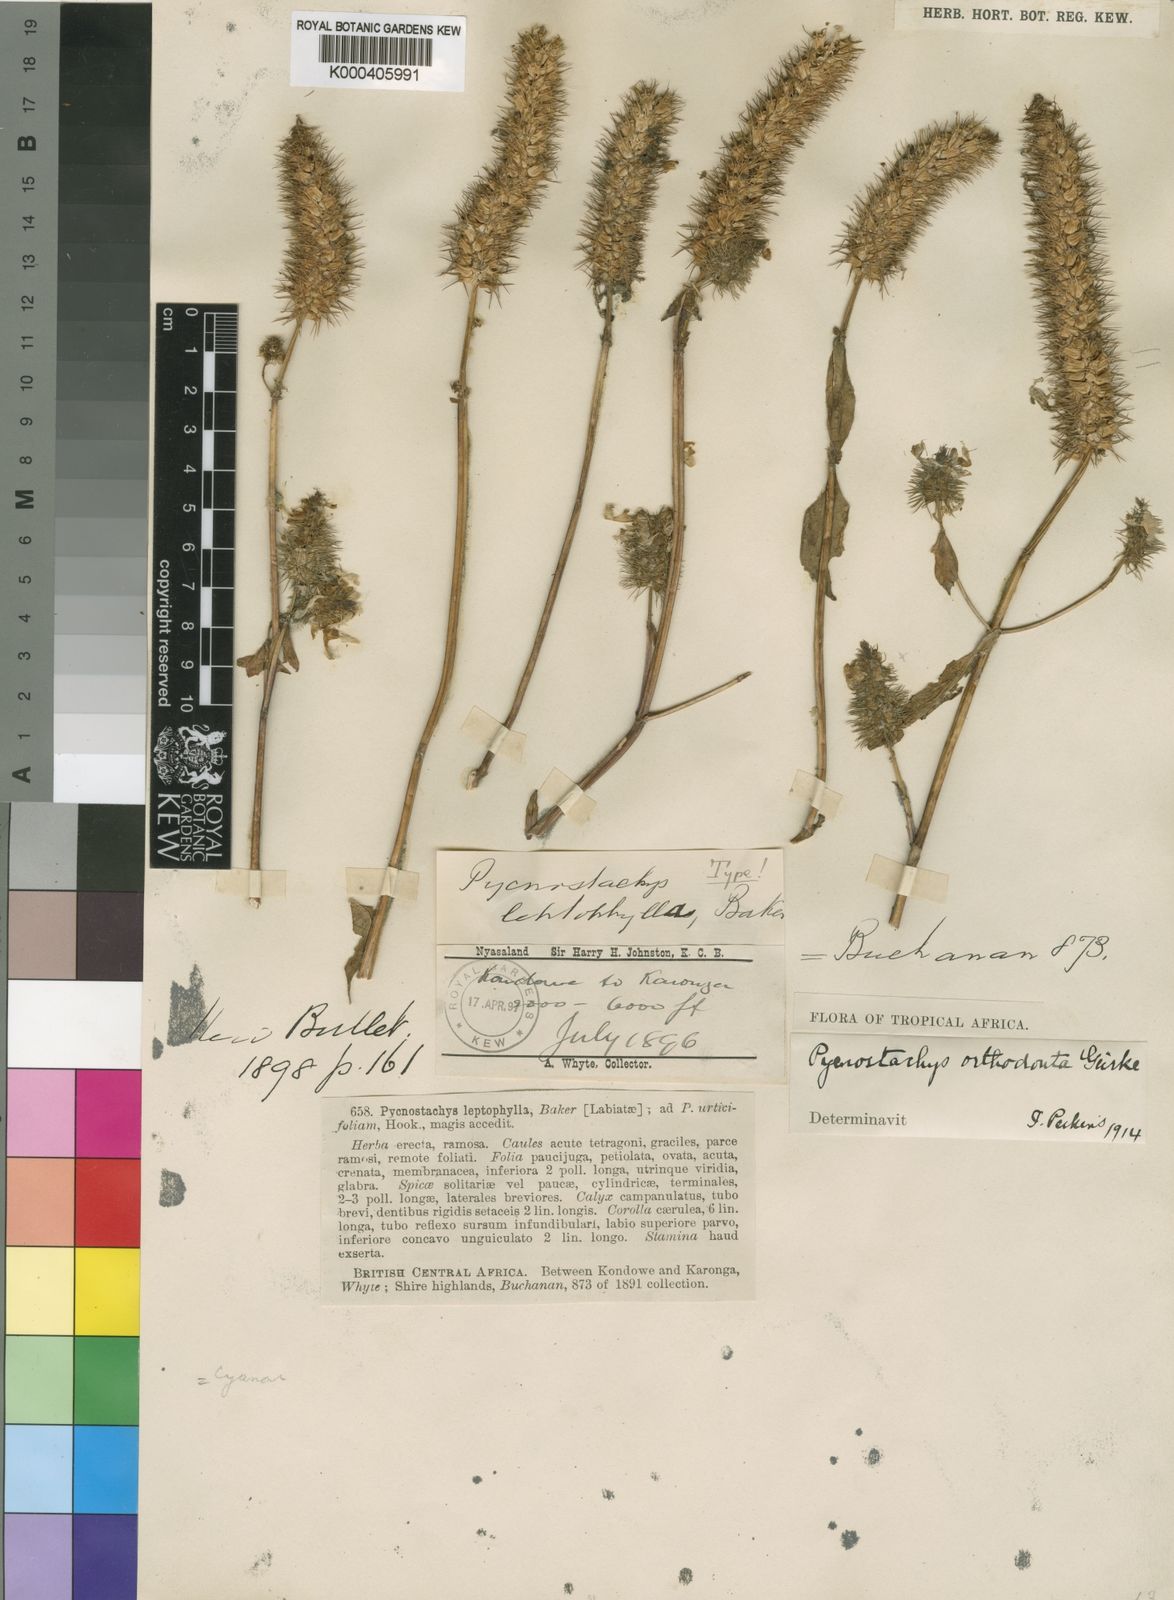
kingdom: Plantae
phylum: Tracheophyta
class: Magnoliopsida
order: Lamiales
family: Lamiaceae
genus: Coleus
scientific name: Coleus
